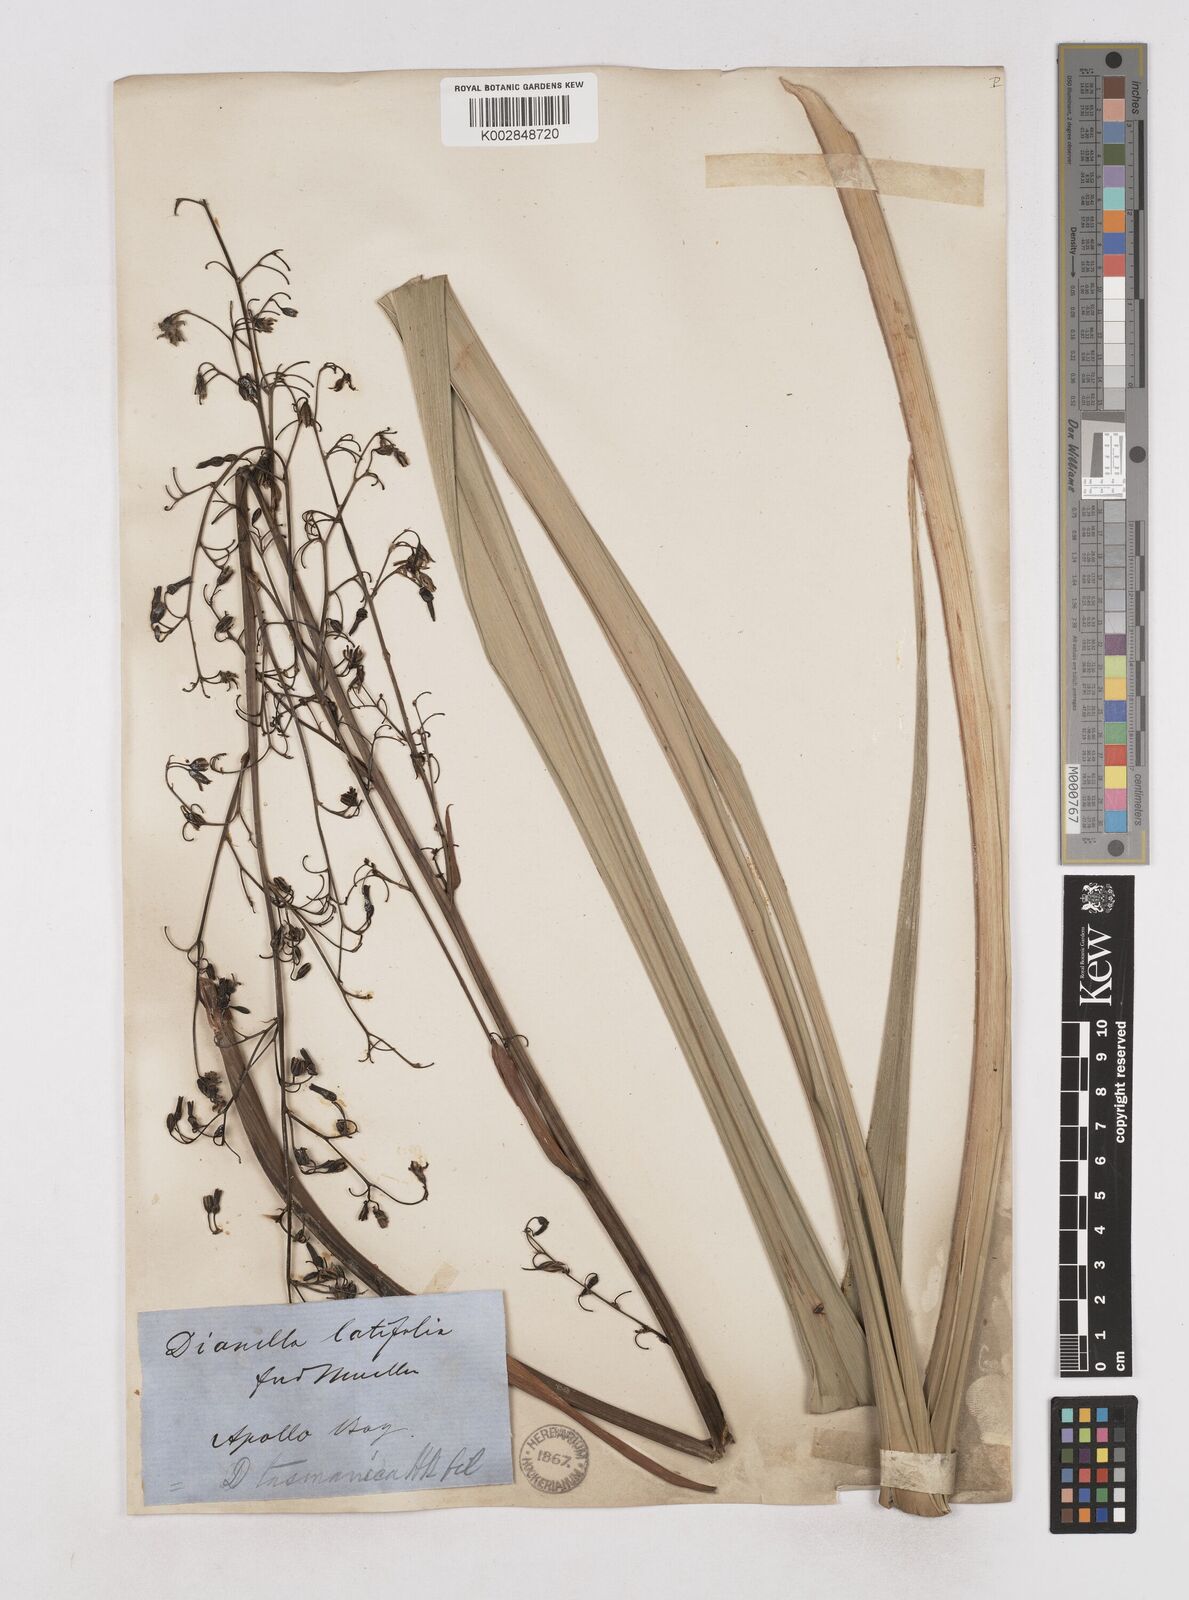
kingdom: Plantae
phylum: Tracheophyta
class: Liliopsida
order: Asparagales
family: Asphodelaceae
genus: Dianella
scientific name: Dianella
